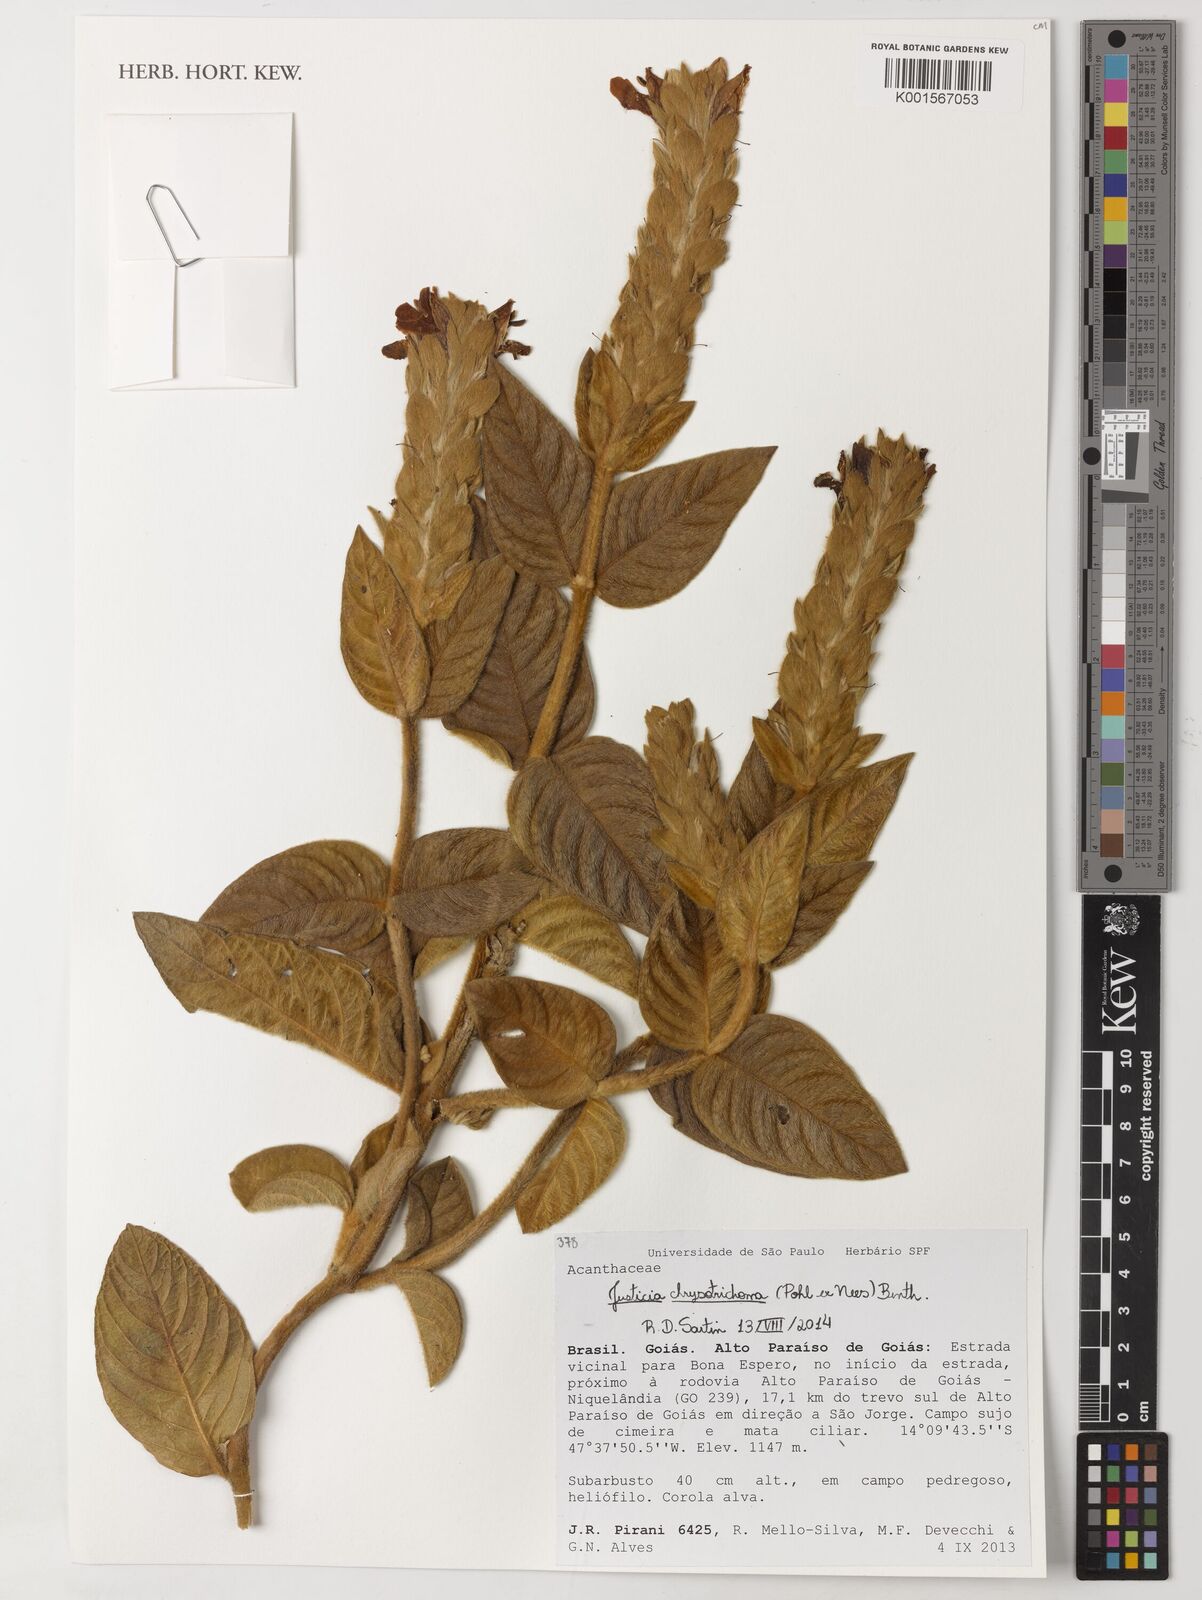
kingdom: Plantae
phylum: Tracheophyta
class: Magnoliopsida
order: Lamiales
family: Acanthaceae
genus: Justicia
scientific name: Justicia chrysotrichoma
